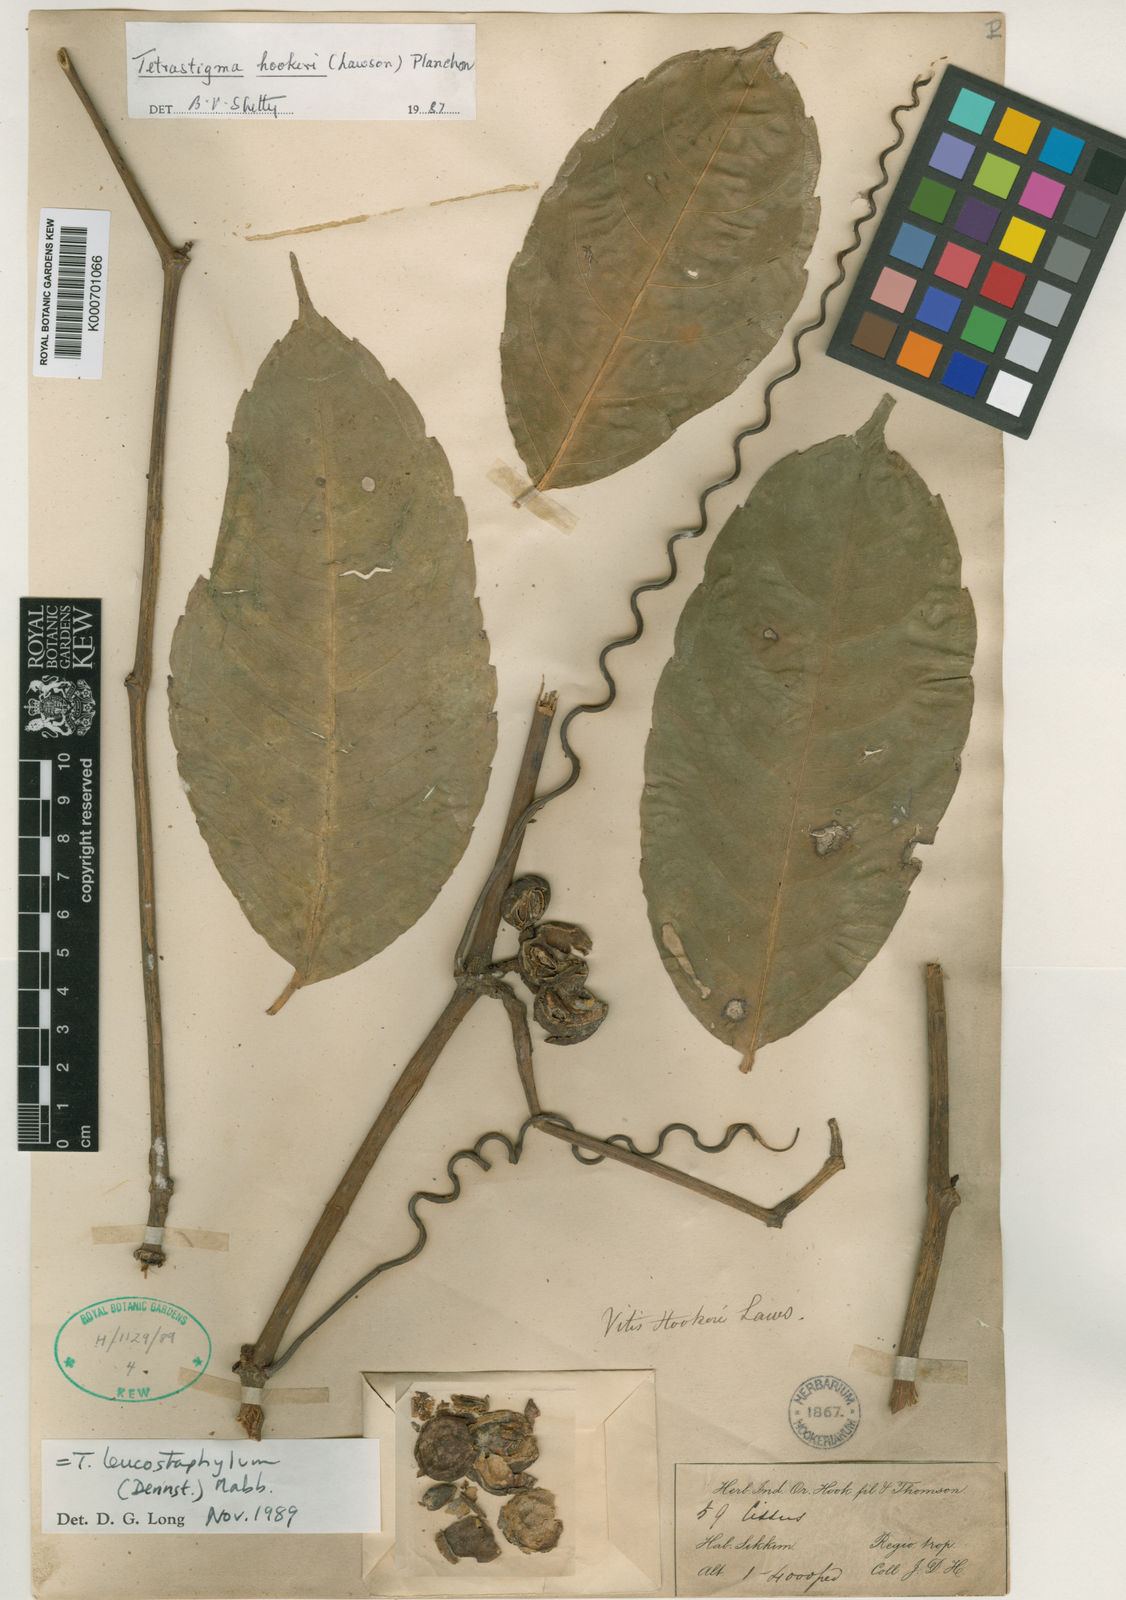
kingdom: Plantae
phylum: Tracheophyta
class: Magnoliopsida
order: Vitales
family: Vitaceae
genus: Tetrastigma
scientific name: Tetrastigma hookeri
